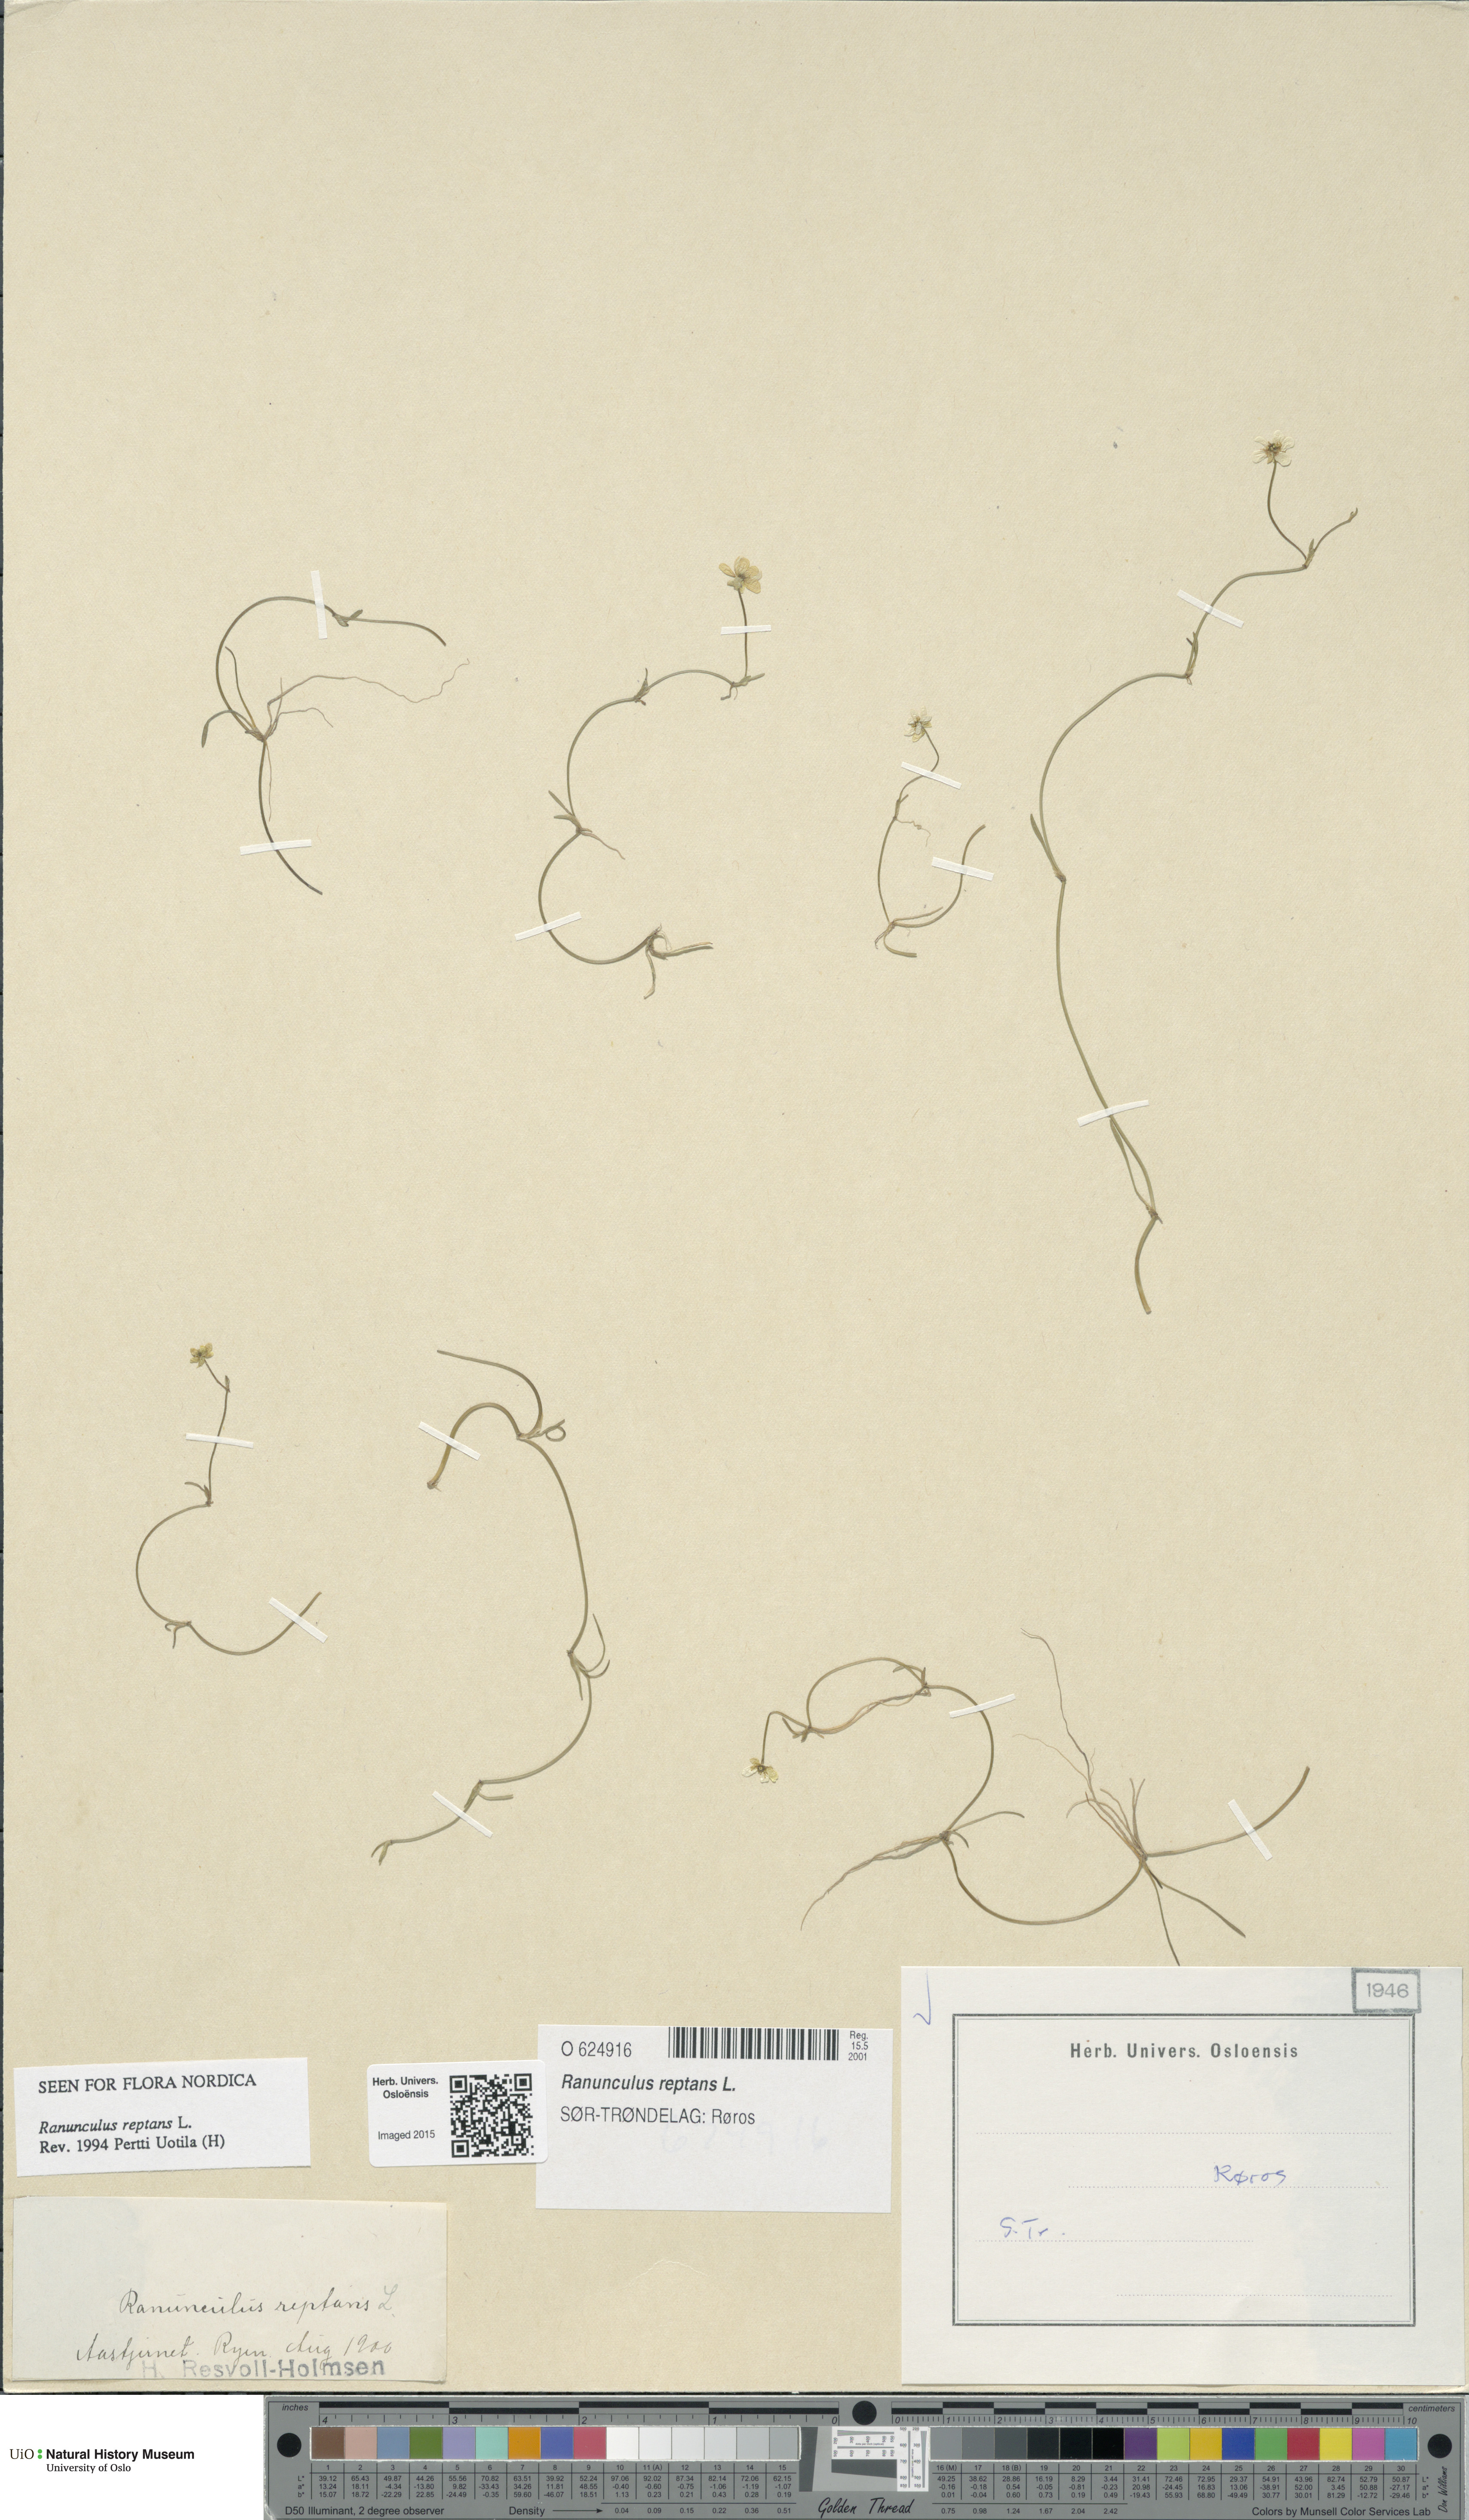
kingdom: Plantae
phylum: Tracheophyta
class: Magnoliopsida
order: Ranunculales
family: Ranunculaceae
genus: Ranunculus
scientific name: Ranunculus reptans
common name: Creeping spearwort
